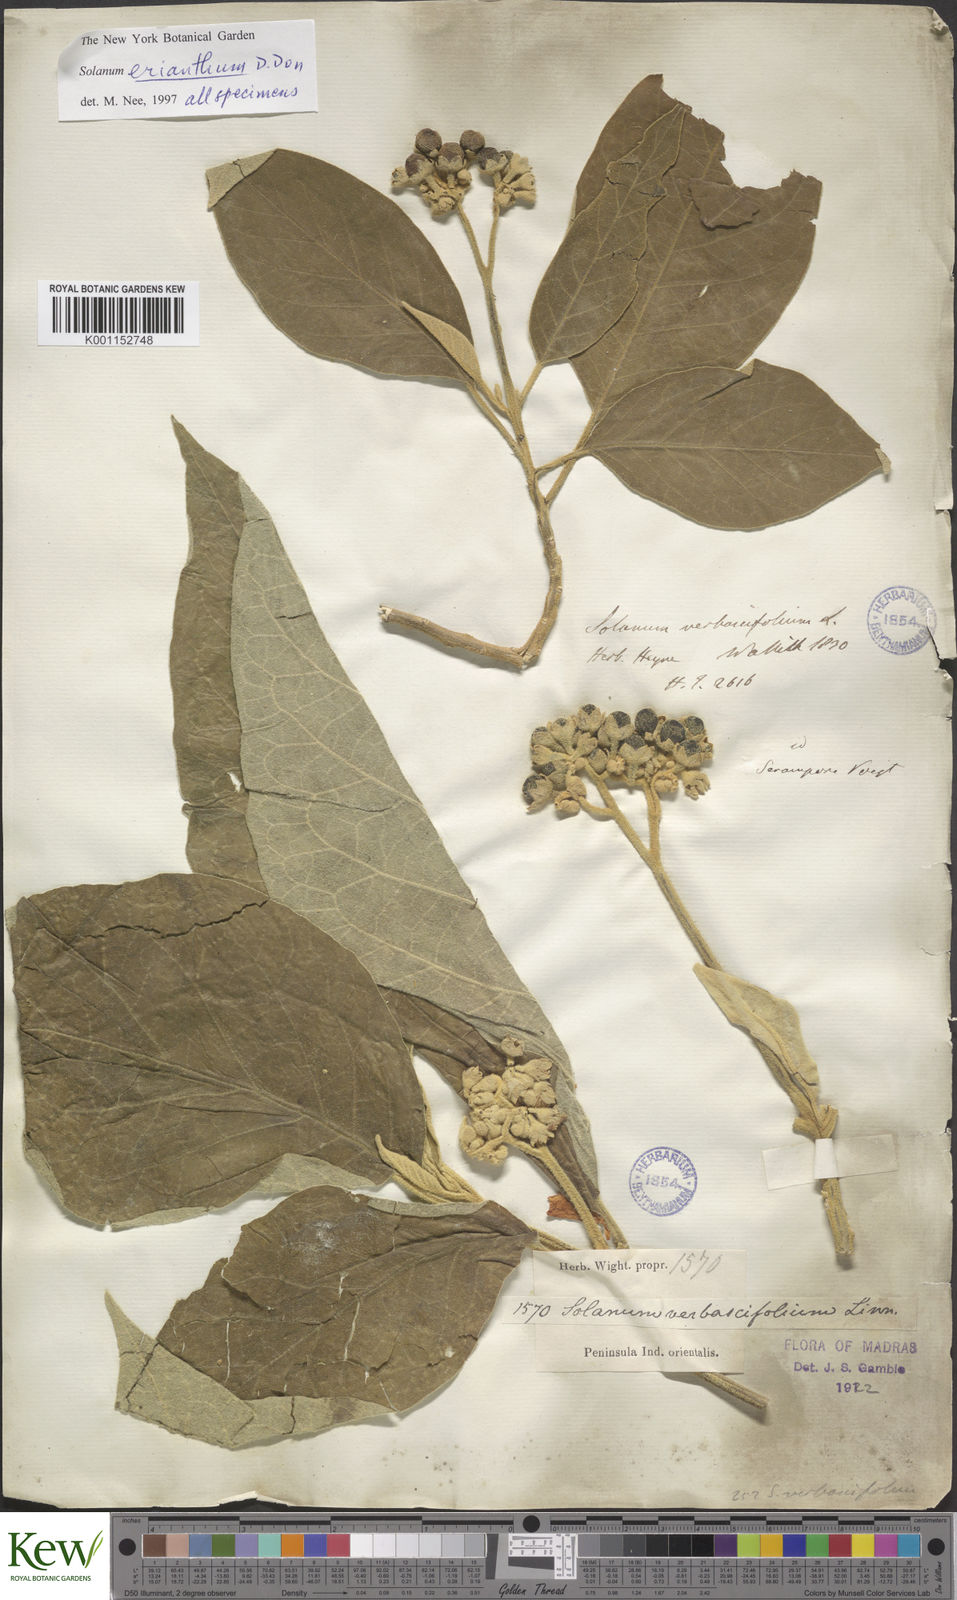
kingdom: Plantae
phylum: Tracheophyta
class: Magnoliopsida
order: Solanales
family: Solanaceae
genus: Solanum
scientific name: Solanum erianthum
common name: Tobacco-tree
